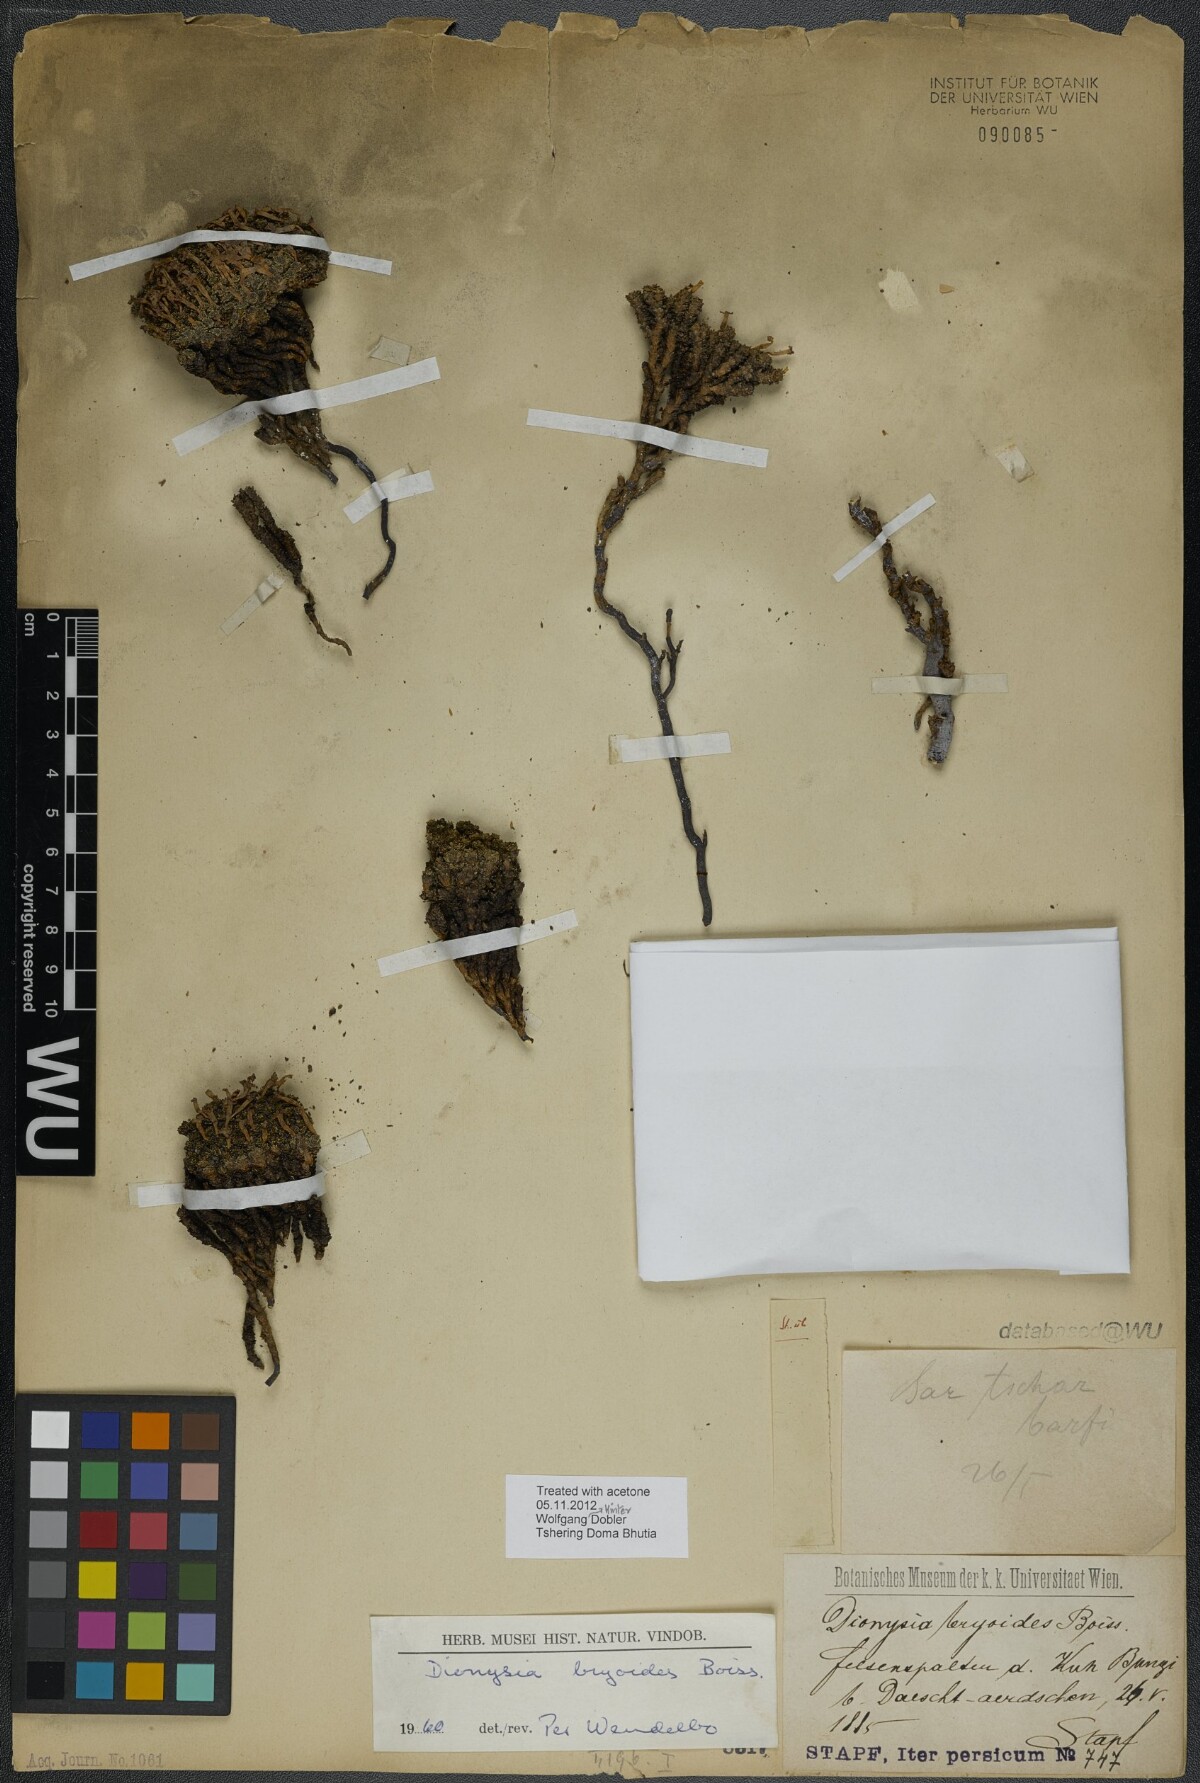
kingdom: Plantae
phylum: Tracheophyta
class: Magnoliopsida
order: Ericales
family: Primulaceae
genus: Dionysia
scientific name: Dionysia bryoides
